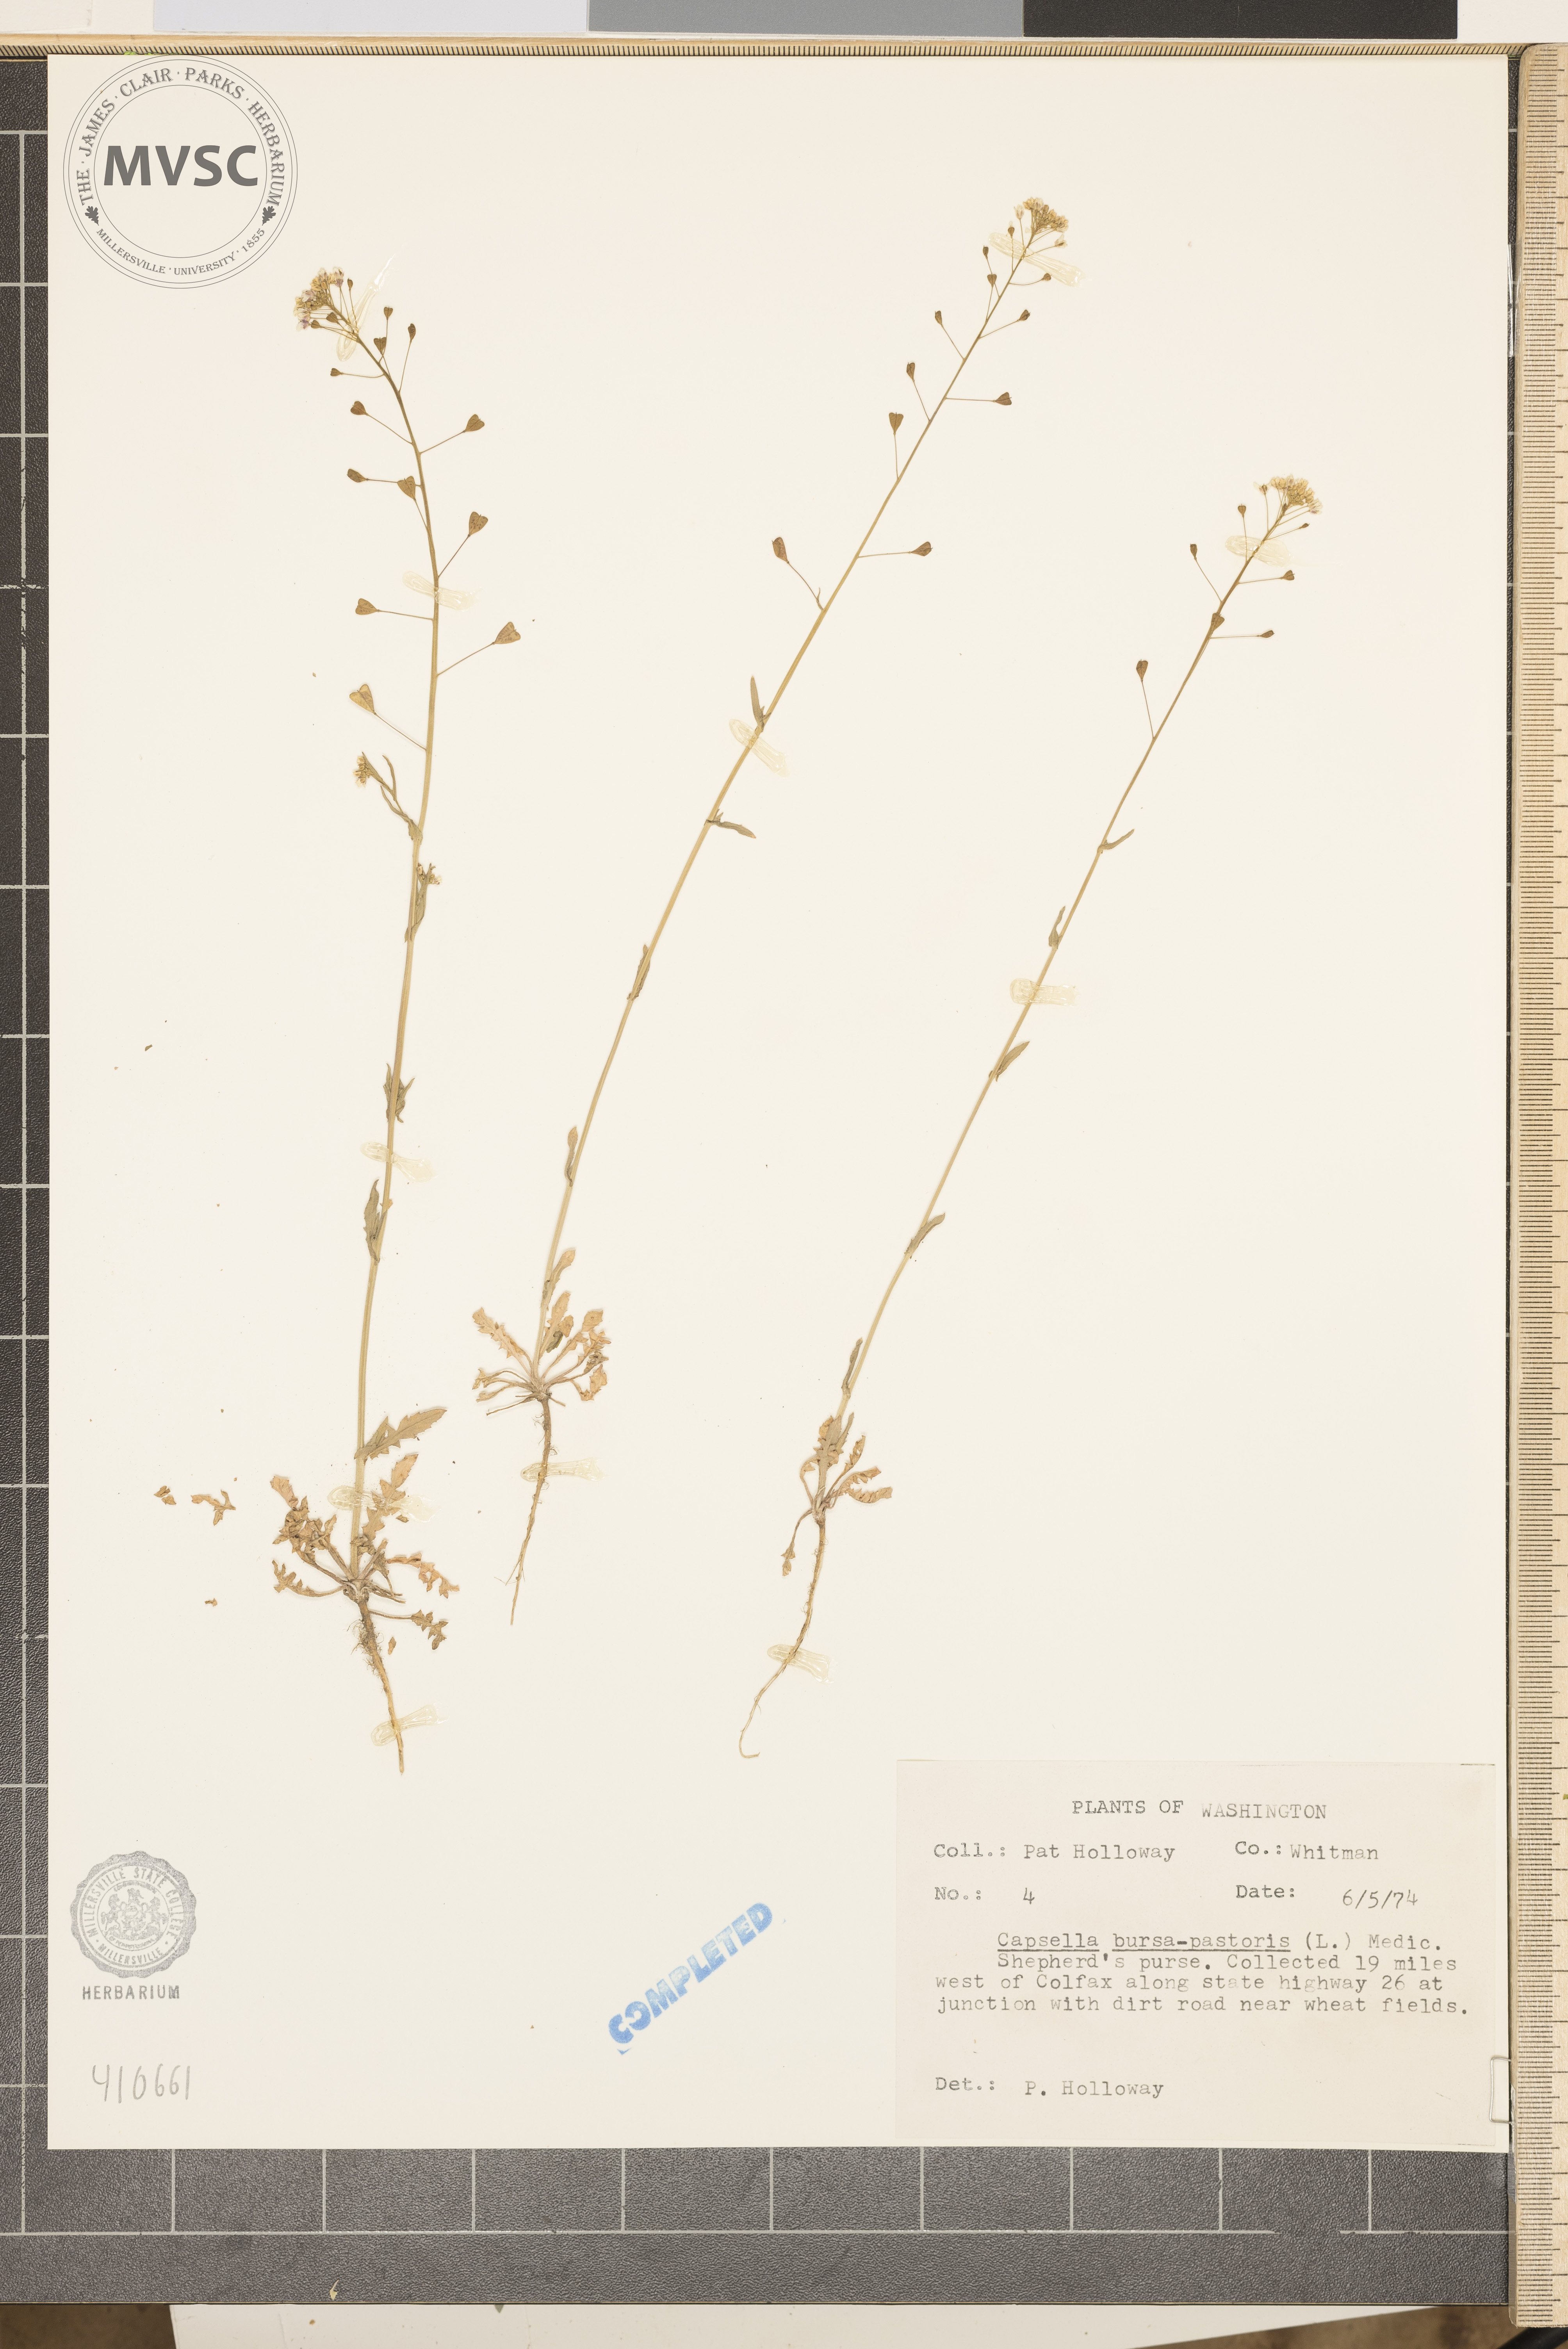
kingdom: Plantae
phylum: Tracheophyta
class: Magnoliopsida
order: Brassicales
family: Brassicaceae
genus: Capsella
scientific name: Capsella bursa-pastoris
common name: Shepherd's purse
